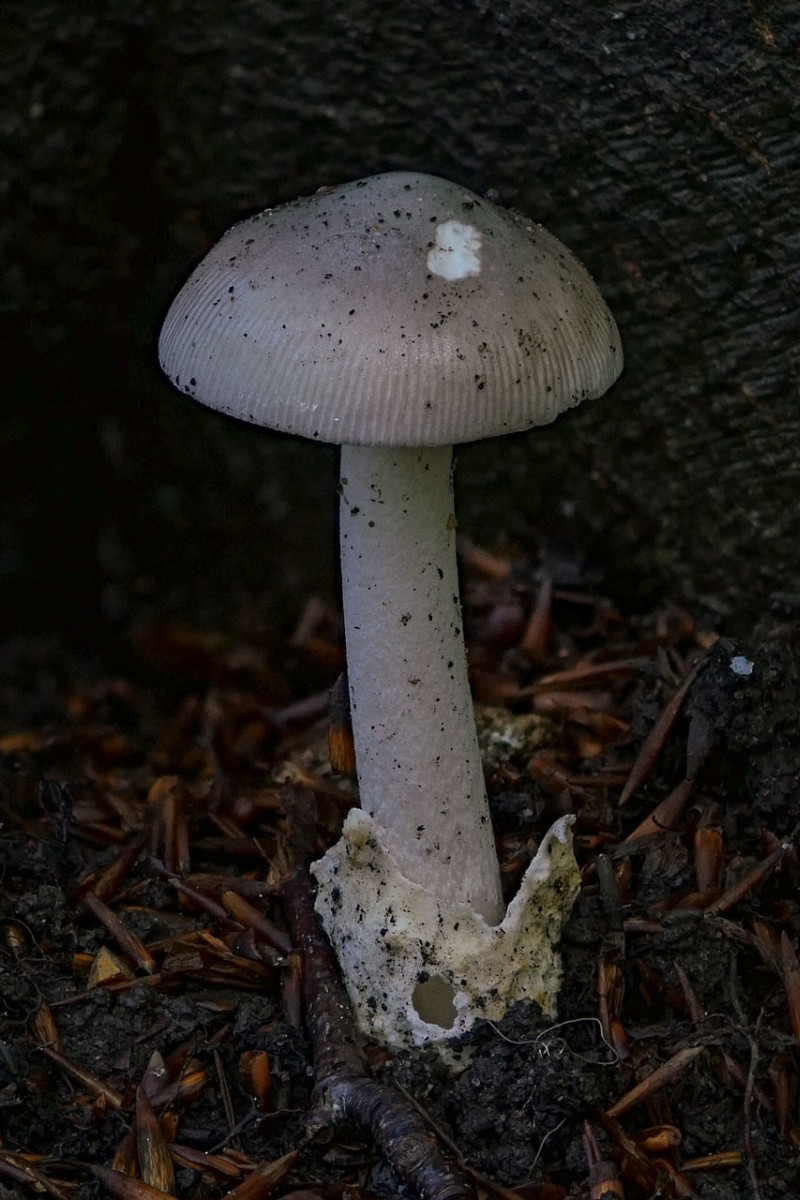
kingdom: Fungi
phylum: Basidiomycota
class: Agaricomycetes
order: Agaricales
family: Amanitaceae
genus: Amanita
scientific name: Amanita vaginata
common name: grå kam-fluesvamp
